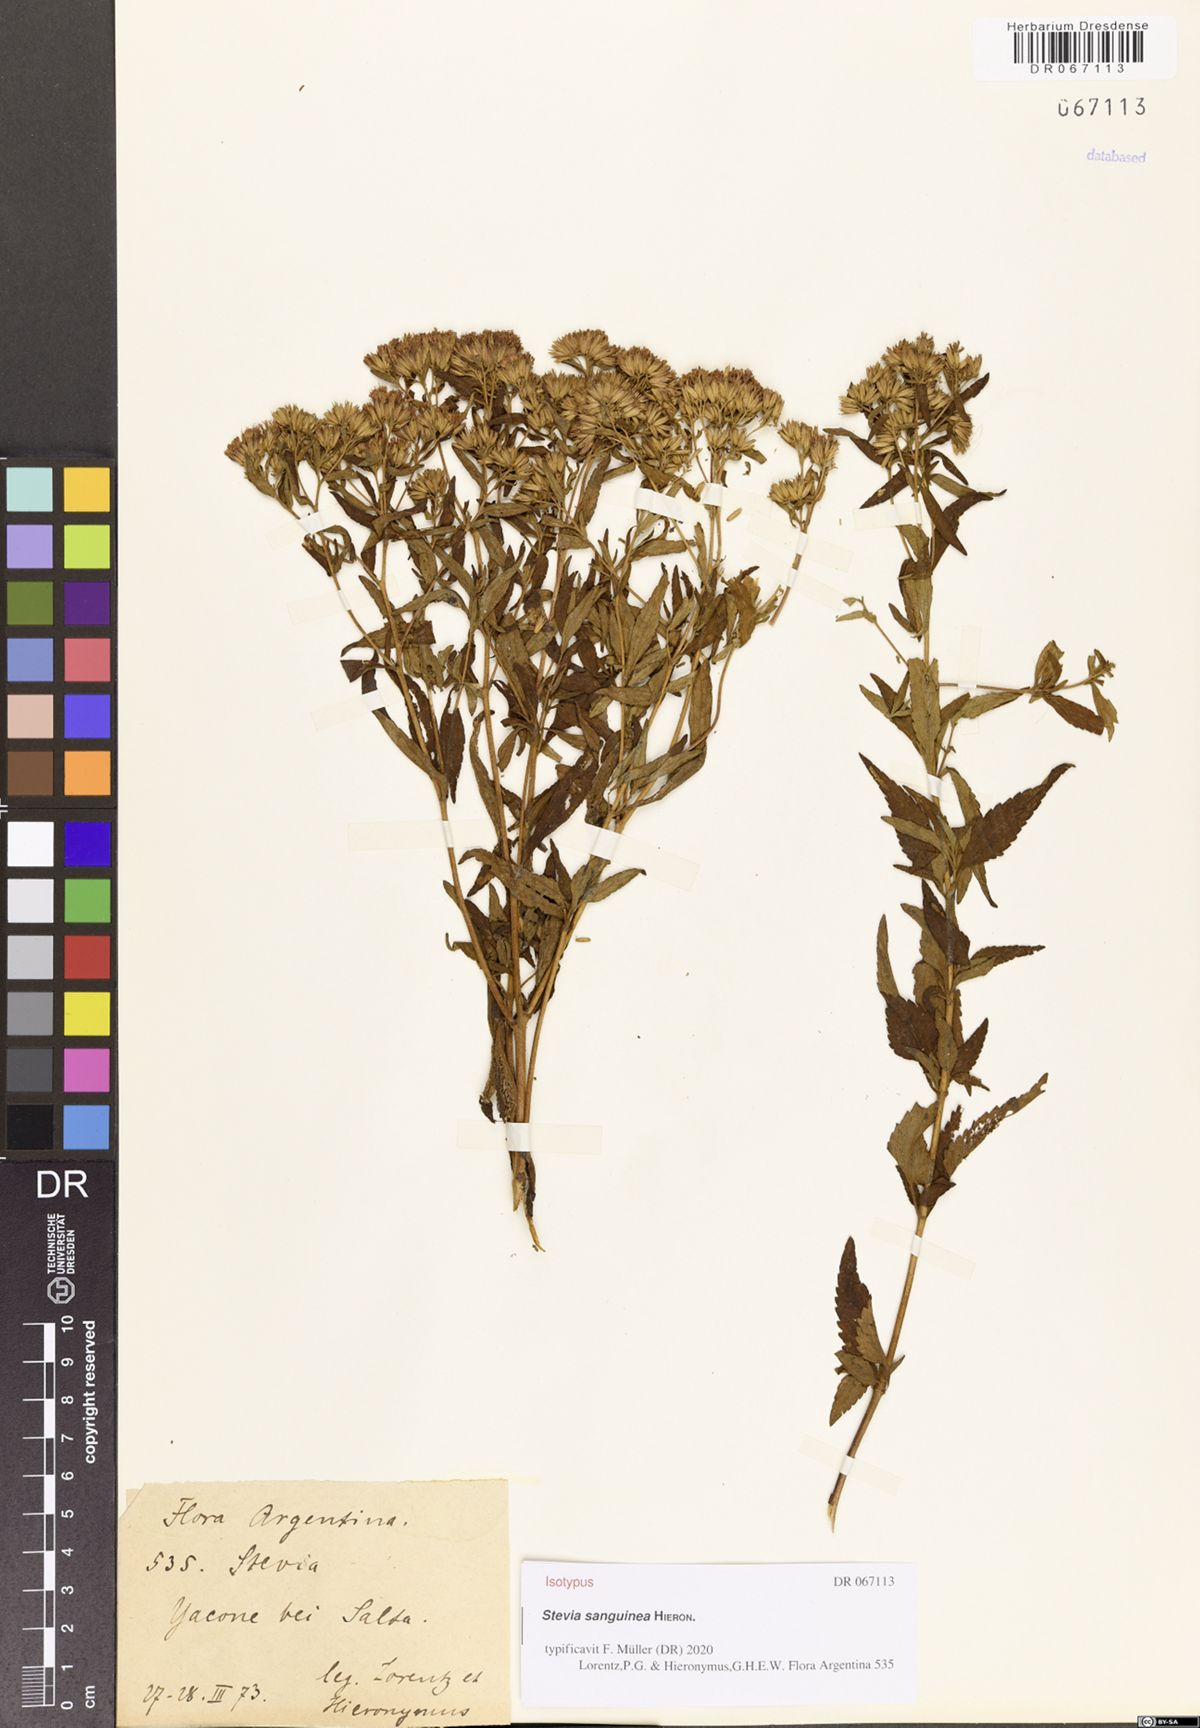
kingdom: Plantae
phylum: Tracheophyta
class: Magnoliopsida
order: Asterales
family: Asteraceae
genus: Stevia
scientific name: Stevia sanguinea
